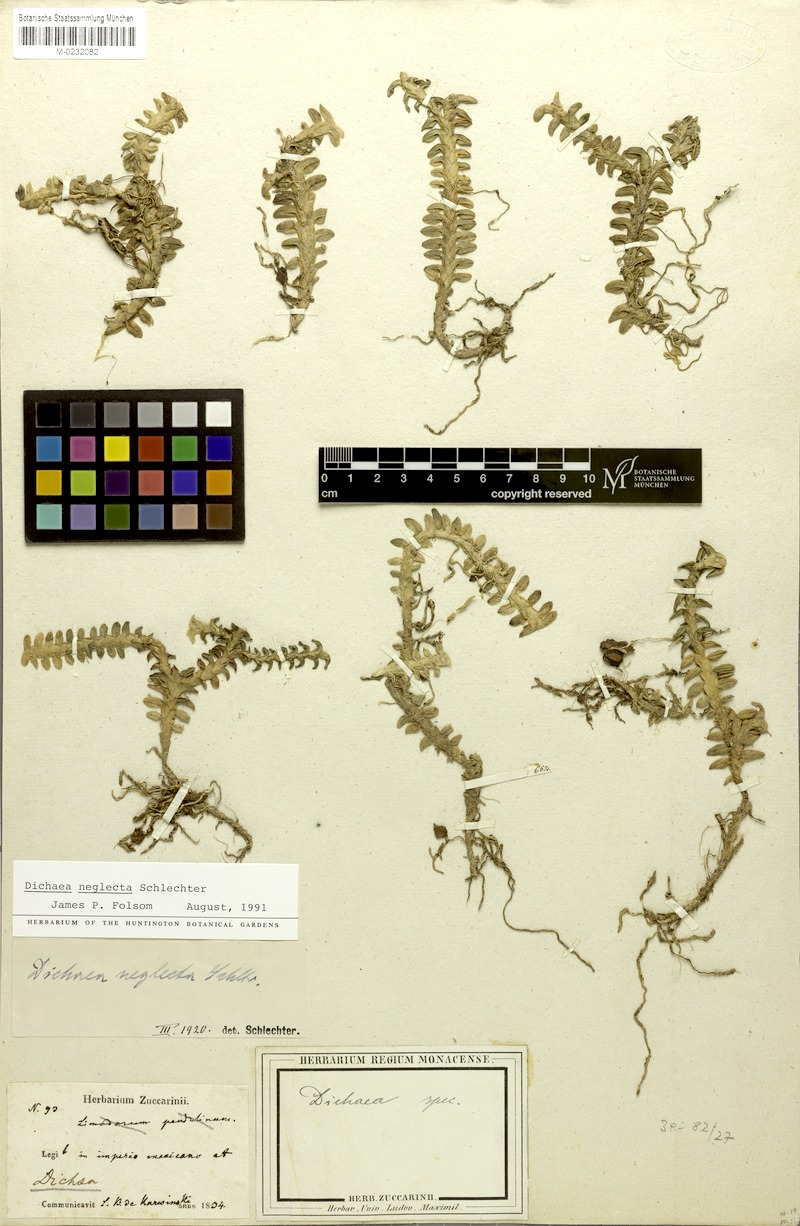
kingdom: Plantae
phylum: Tracheophyta
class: Liliopsida
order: Asparagales
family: Orchidaceae
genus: Dichaea
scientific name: Dichaea neglecta
